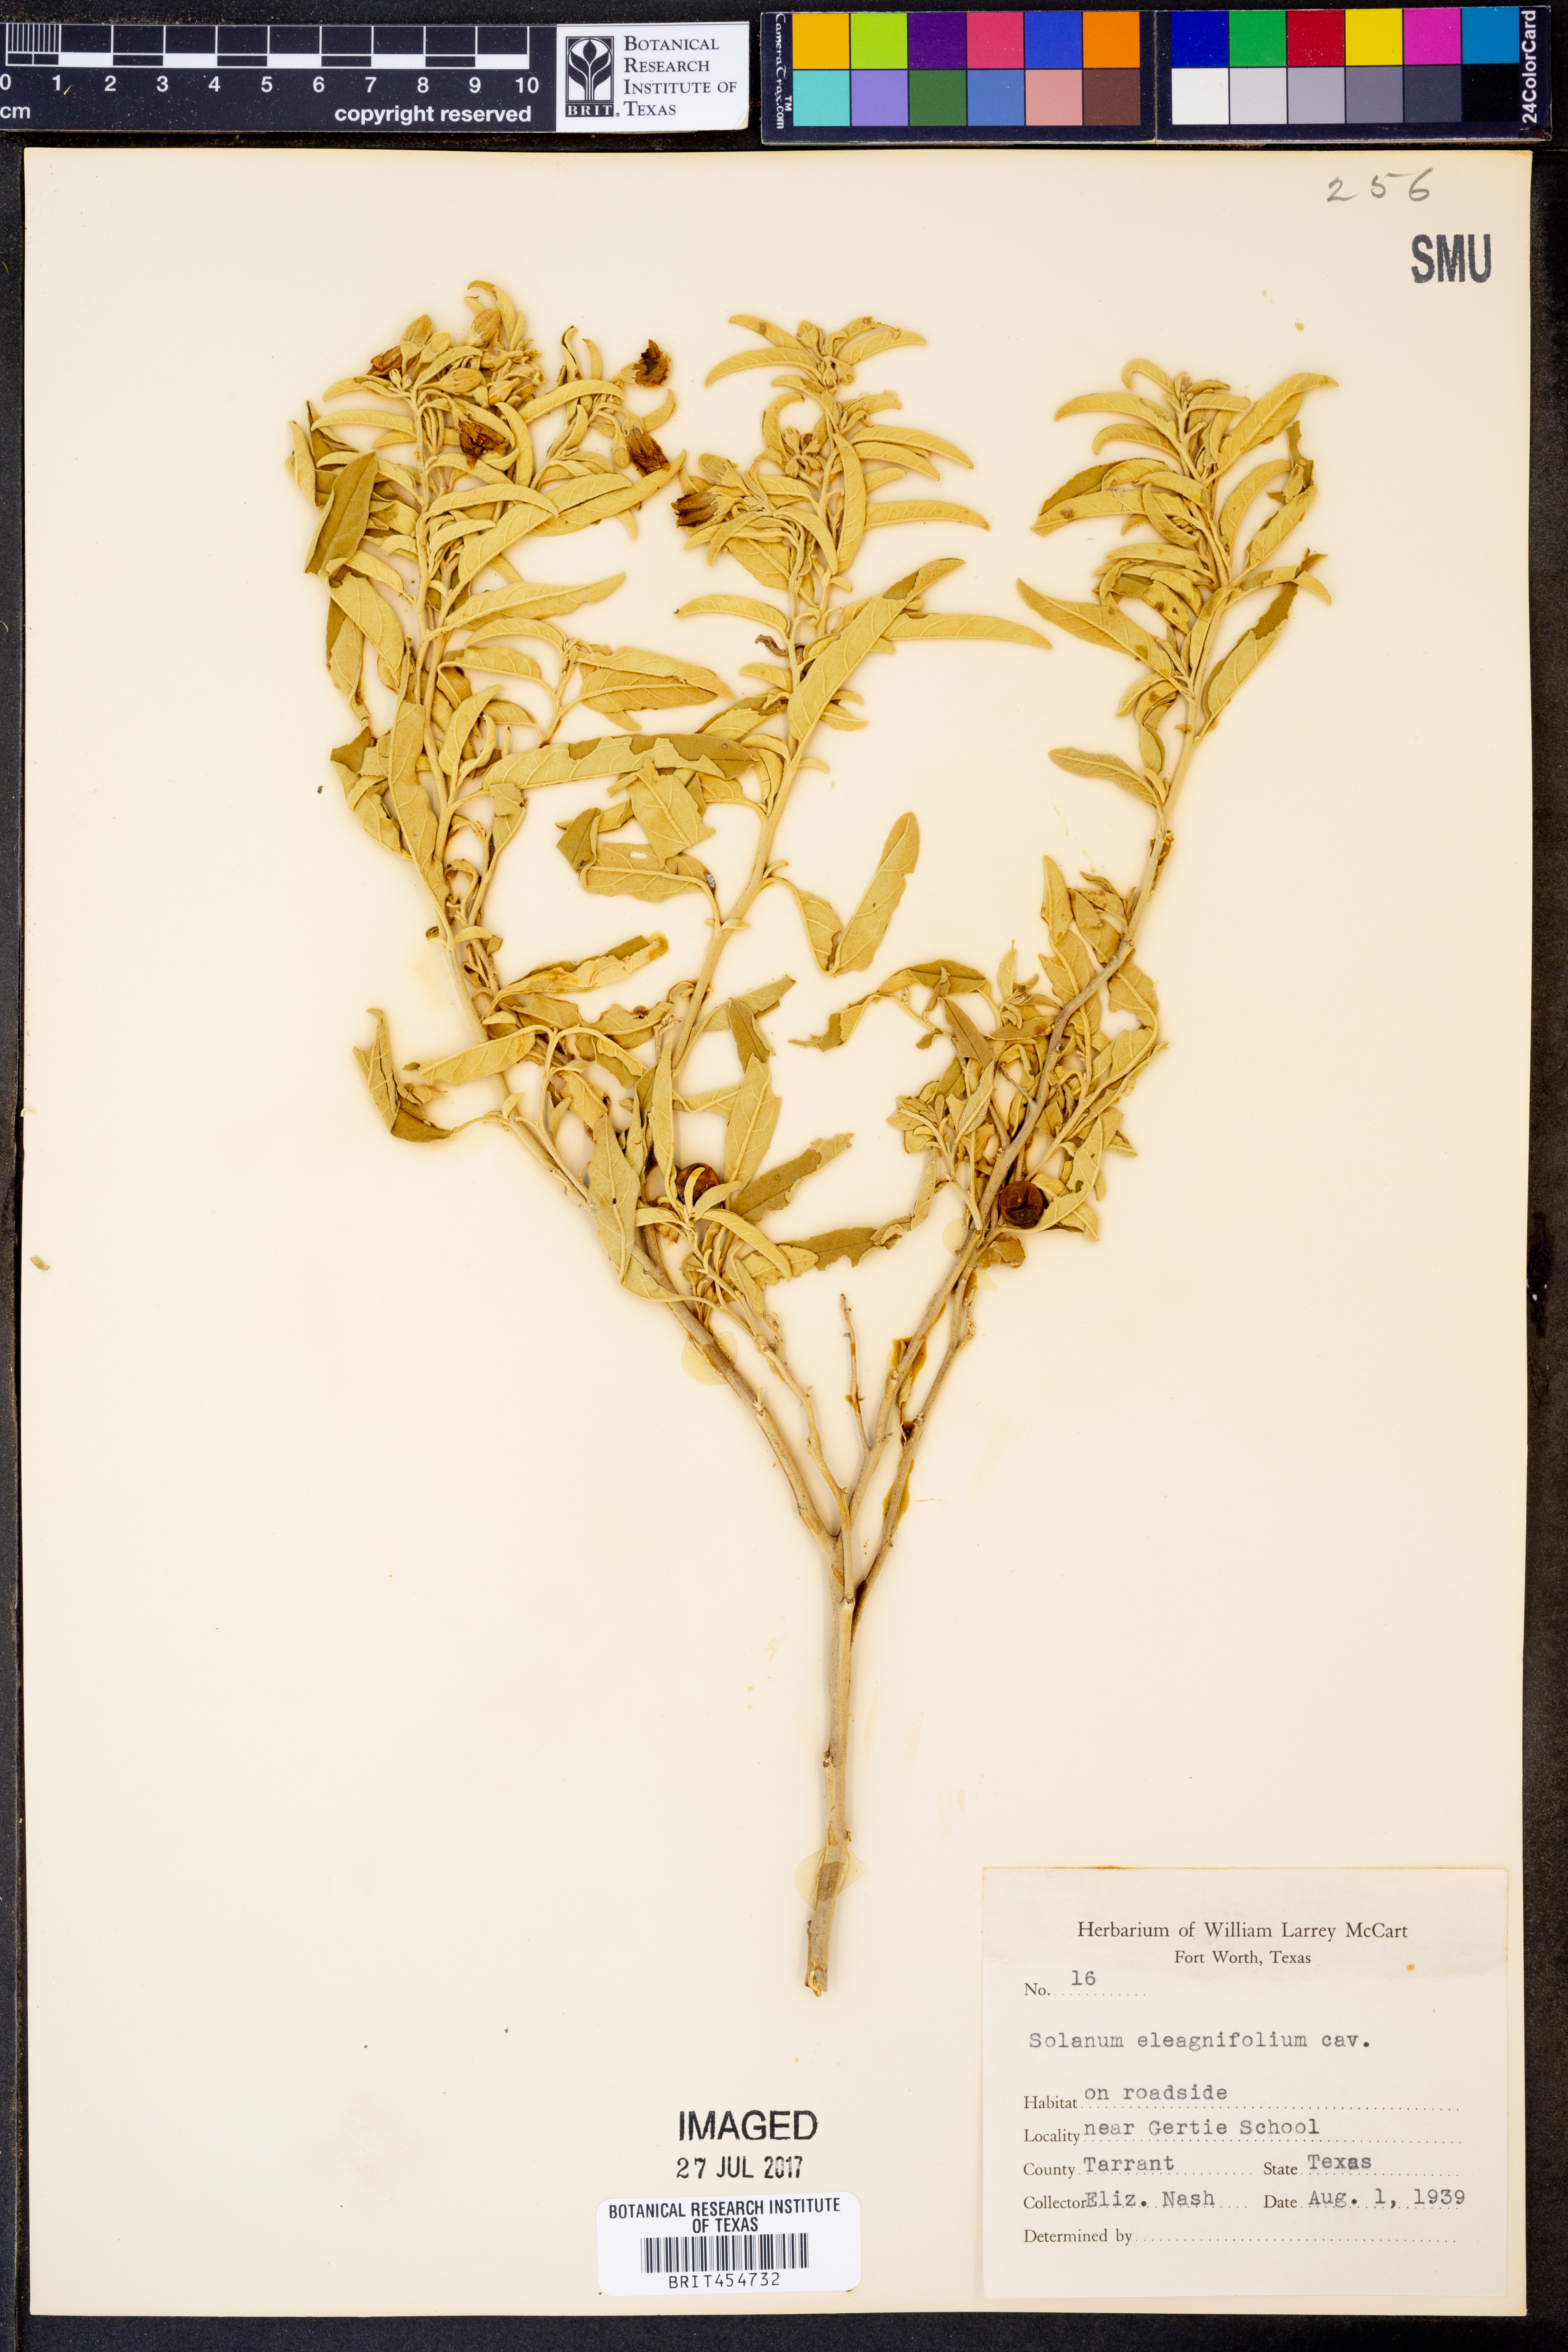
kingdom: Plantae
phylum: Tracheophyta
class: Magnoliopsida
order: Solanales
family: Solanaceae
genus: Solanum
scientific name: Solanum elaeagnifolium
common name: Silverleaf nightshade
